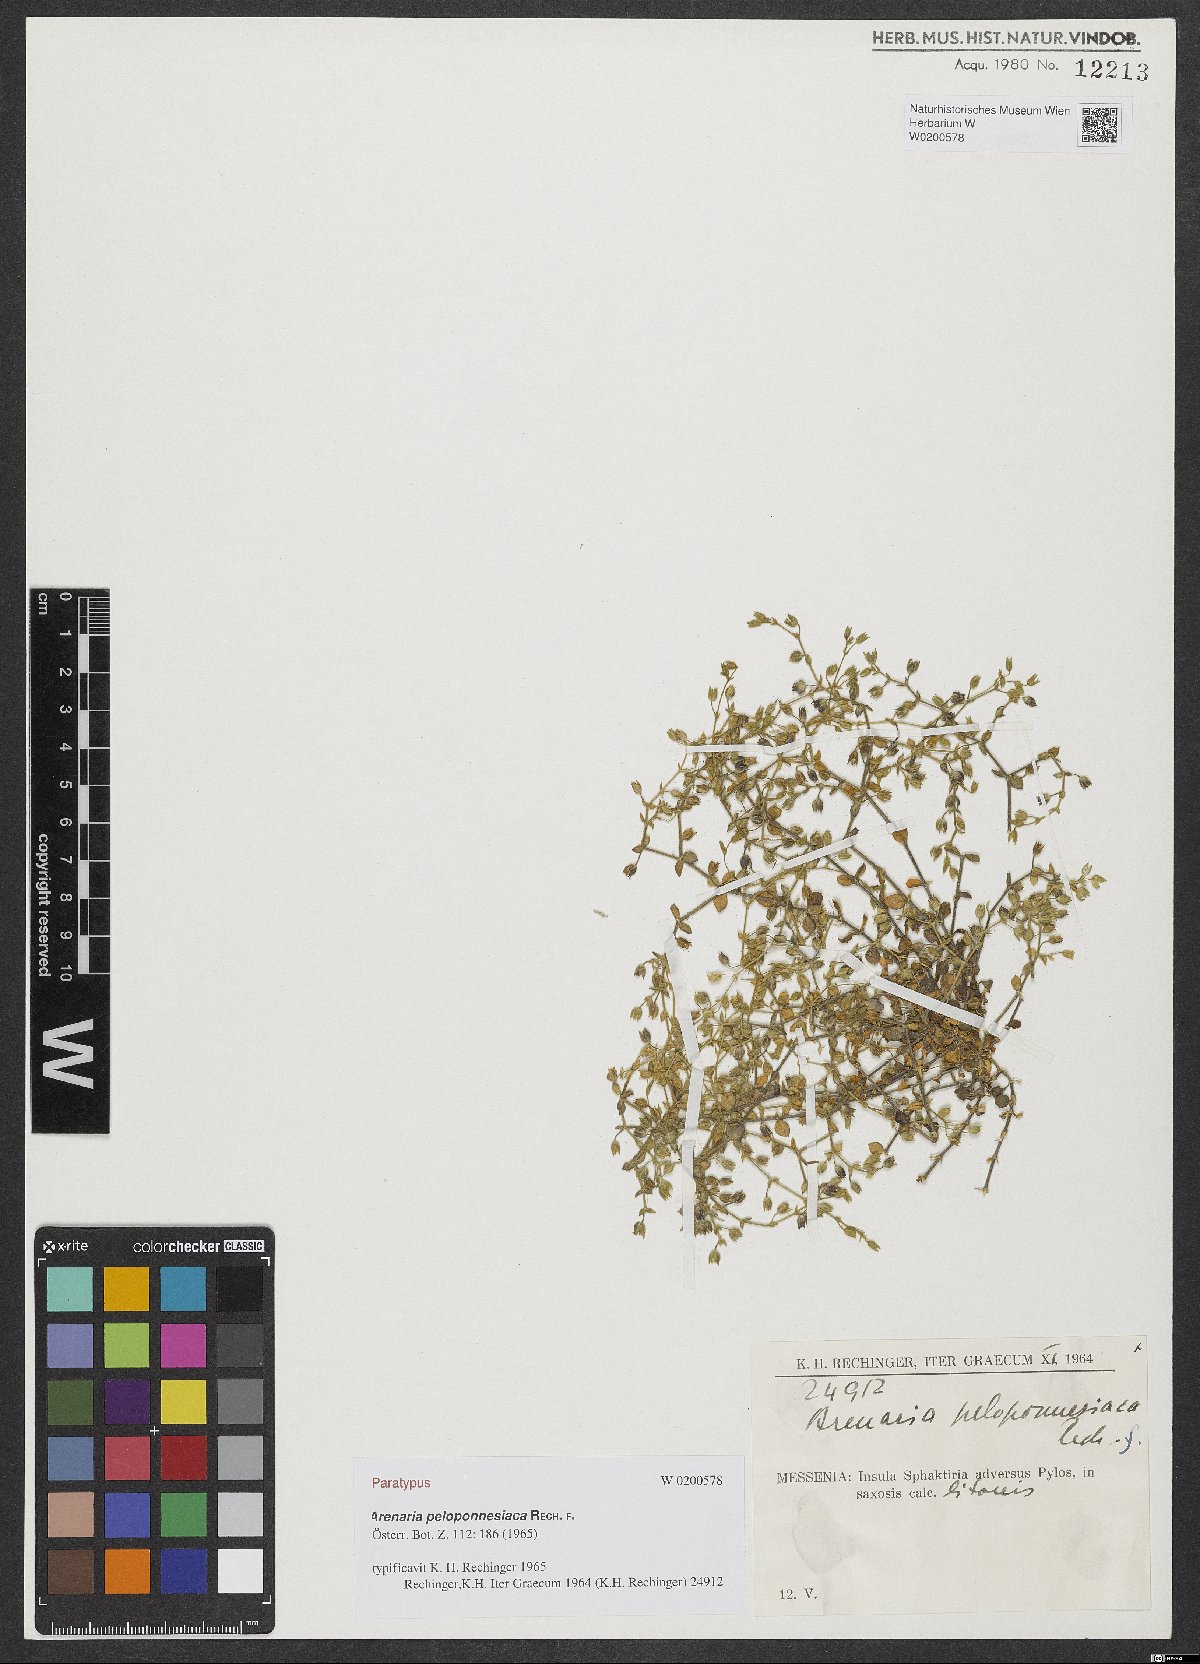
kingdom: Plantae
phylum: Tracheophyta
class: Magnoliopsida
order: Caryophyllales
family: Caryophyllaceae
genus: Arenaria
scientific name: Arenaria leptoclados
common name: Thyme-leaved sandwort
